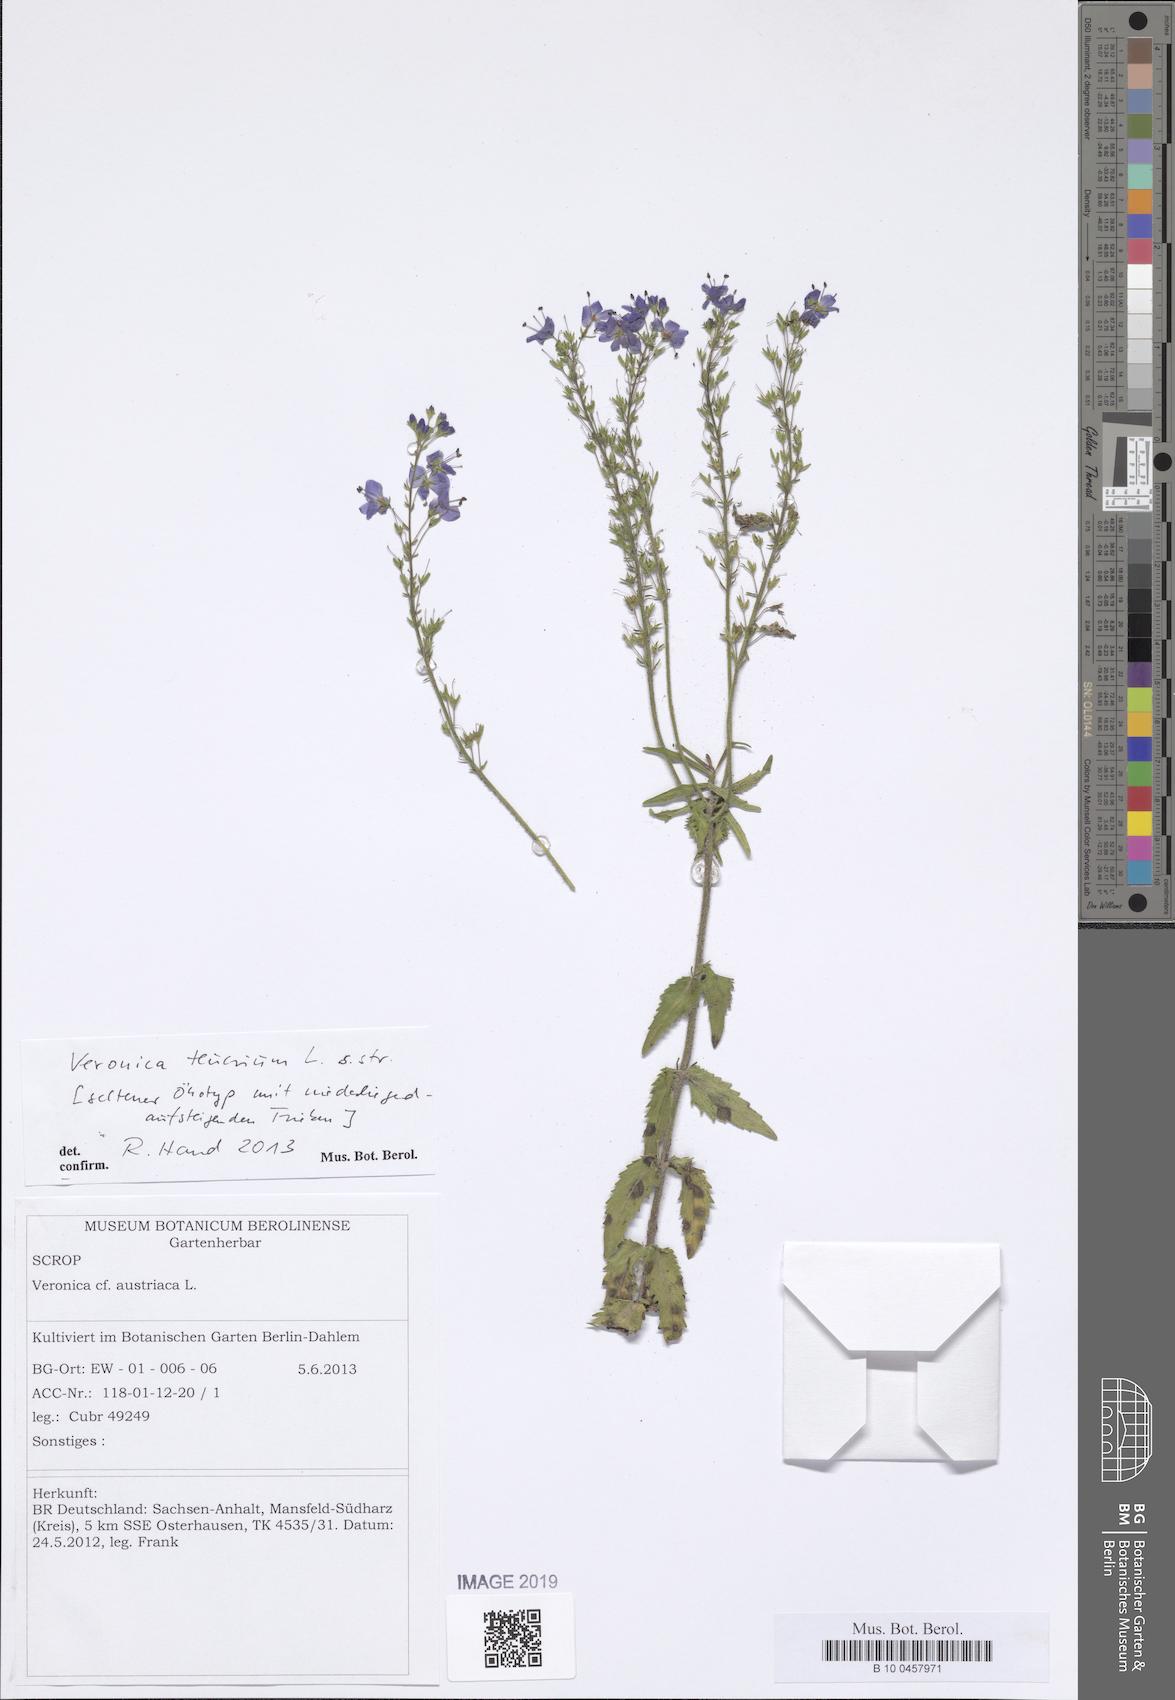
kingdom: Plantae
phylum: Tracheophyta
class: Magnoliopsida
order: Lamiales
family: Plantaginaceae
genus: Veronica
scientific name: Veronica teucrium
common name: Large speedwell
